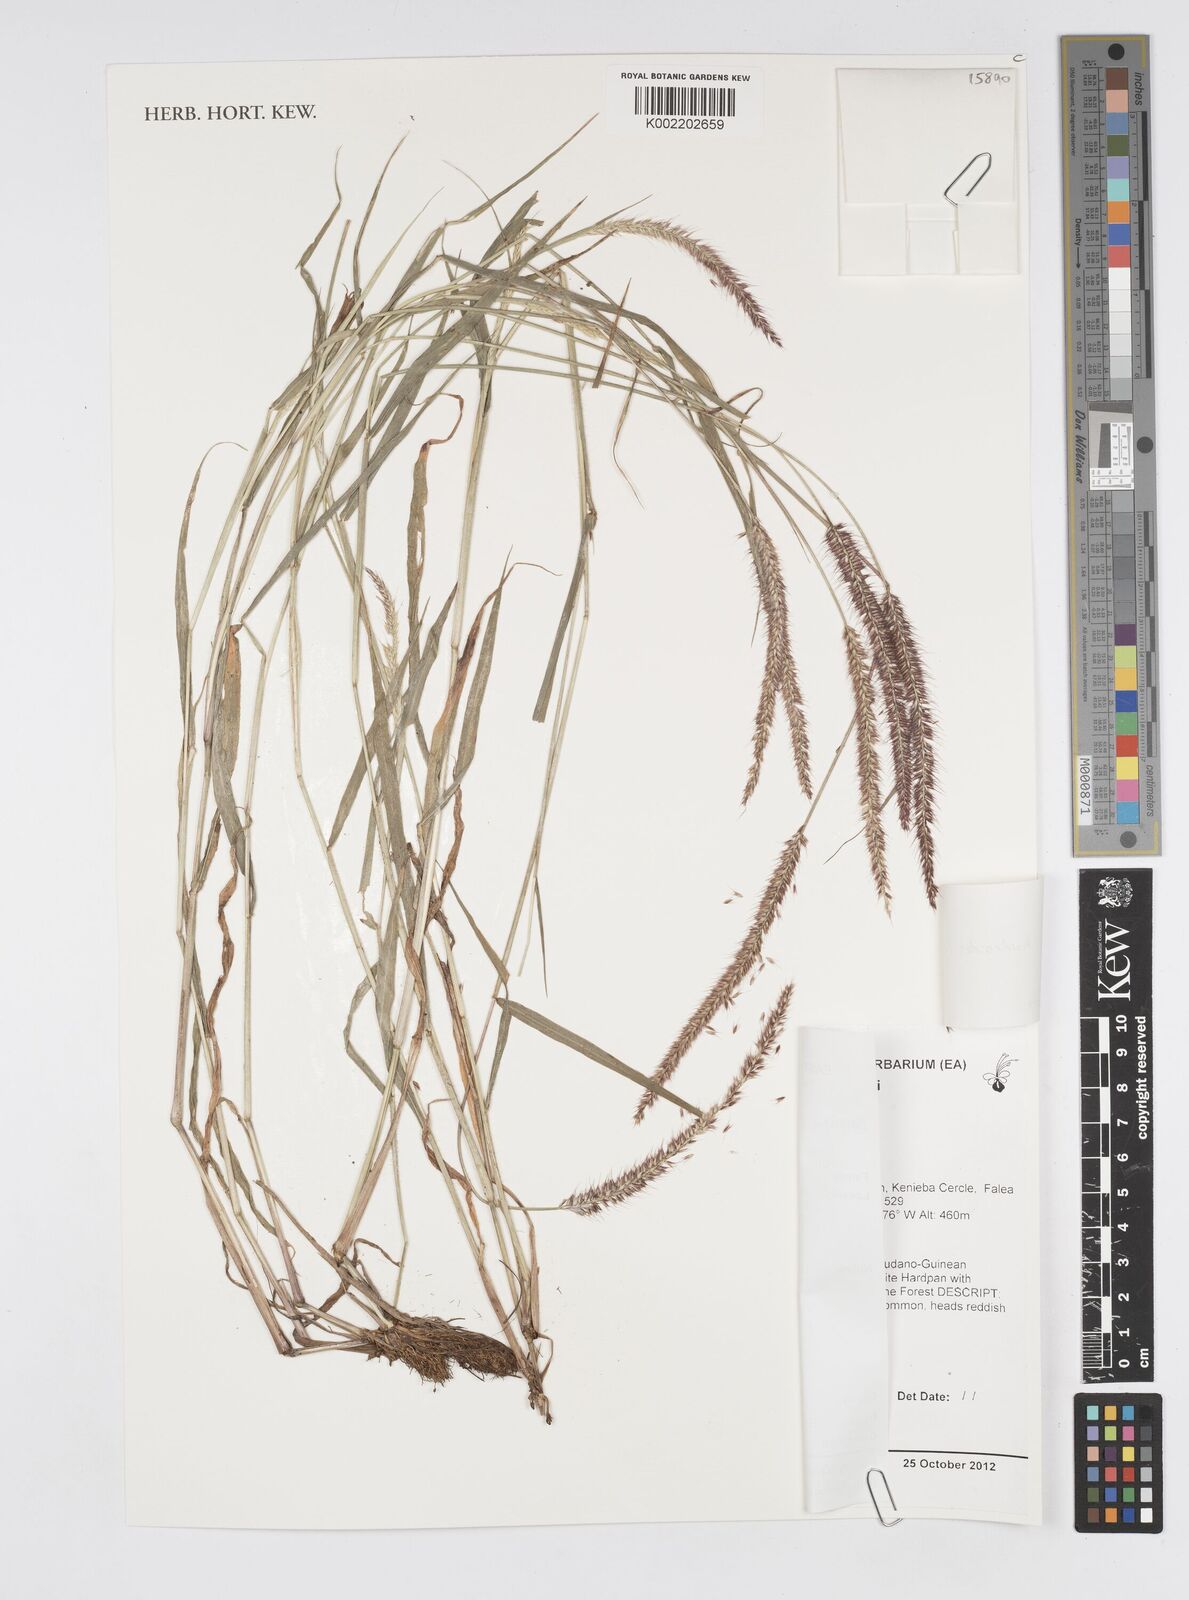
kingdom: Plantae
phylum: Tracheophyta
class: Liliopsida
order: Poales
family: Poaceae
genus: Cenchrus
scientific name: Cenchrus hordeoides
